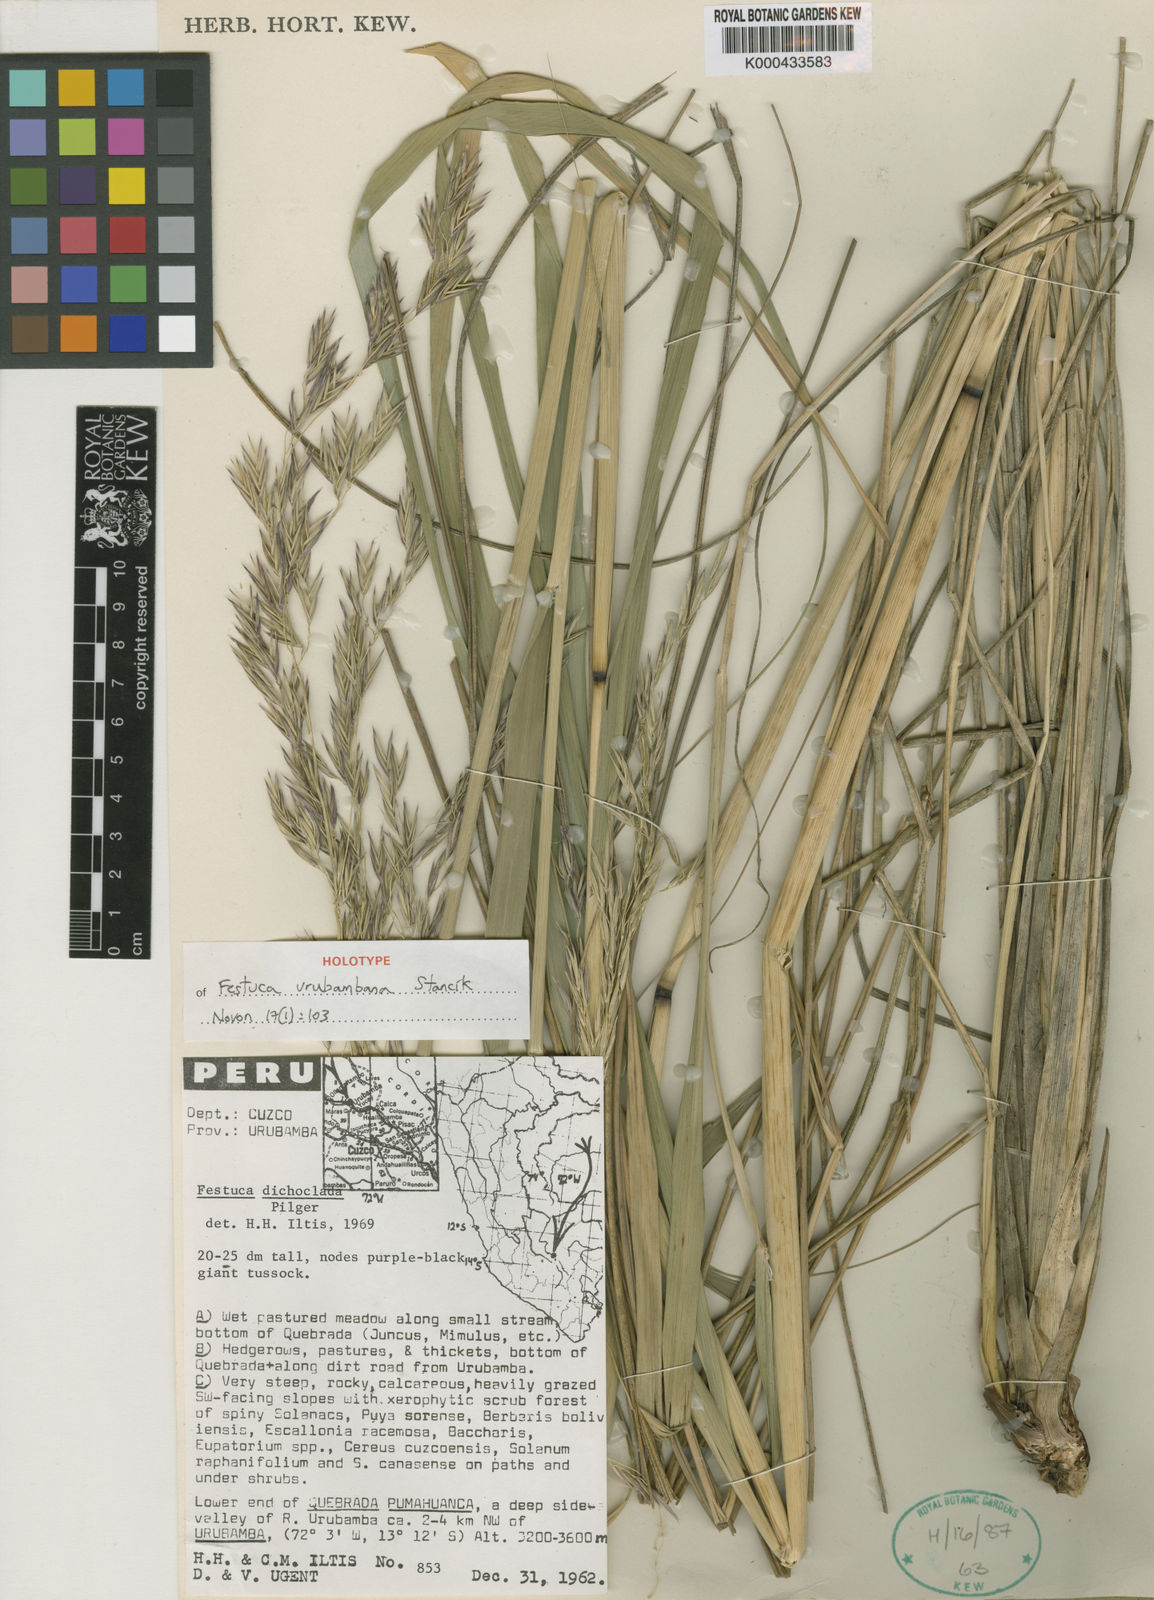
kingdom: Plantae
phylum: Tracheophyta
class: Liliopsida
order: Poales
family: Poaceae
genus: Festuca
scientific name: Festuca
